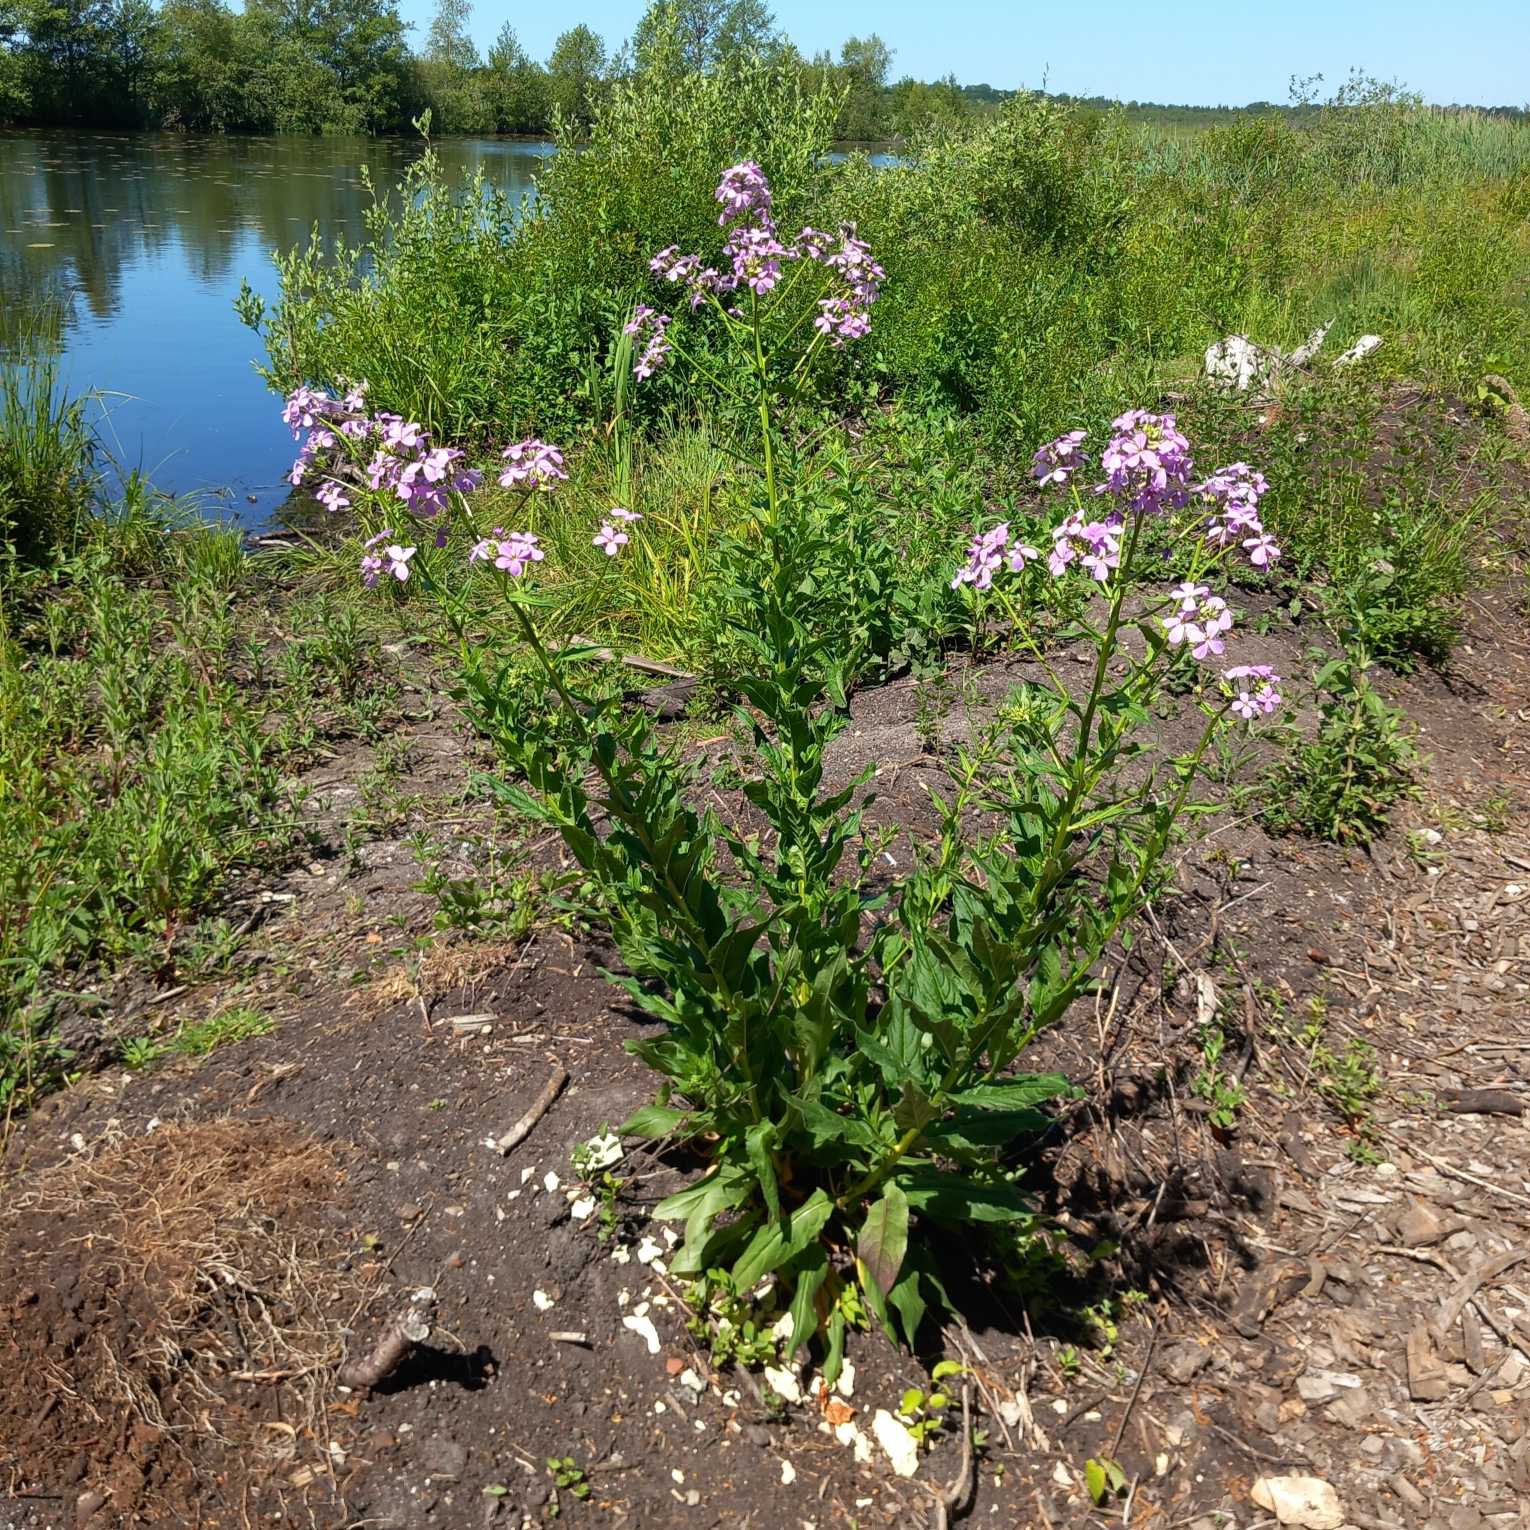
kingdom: Plantae
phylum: Tracheophyta
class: Magnoliopsida
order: Brassicales
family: Brassicaceae
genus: Hesperis
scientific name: Hesperis matronalis
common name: Aftenstjerne
